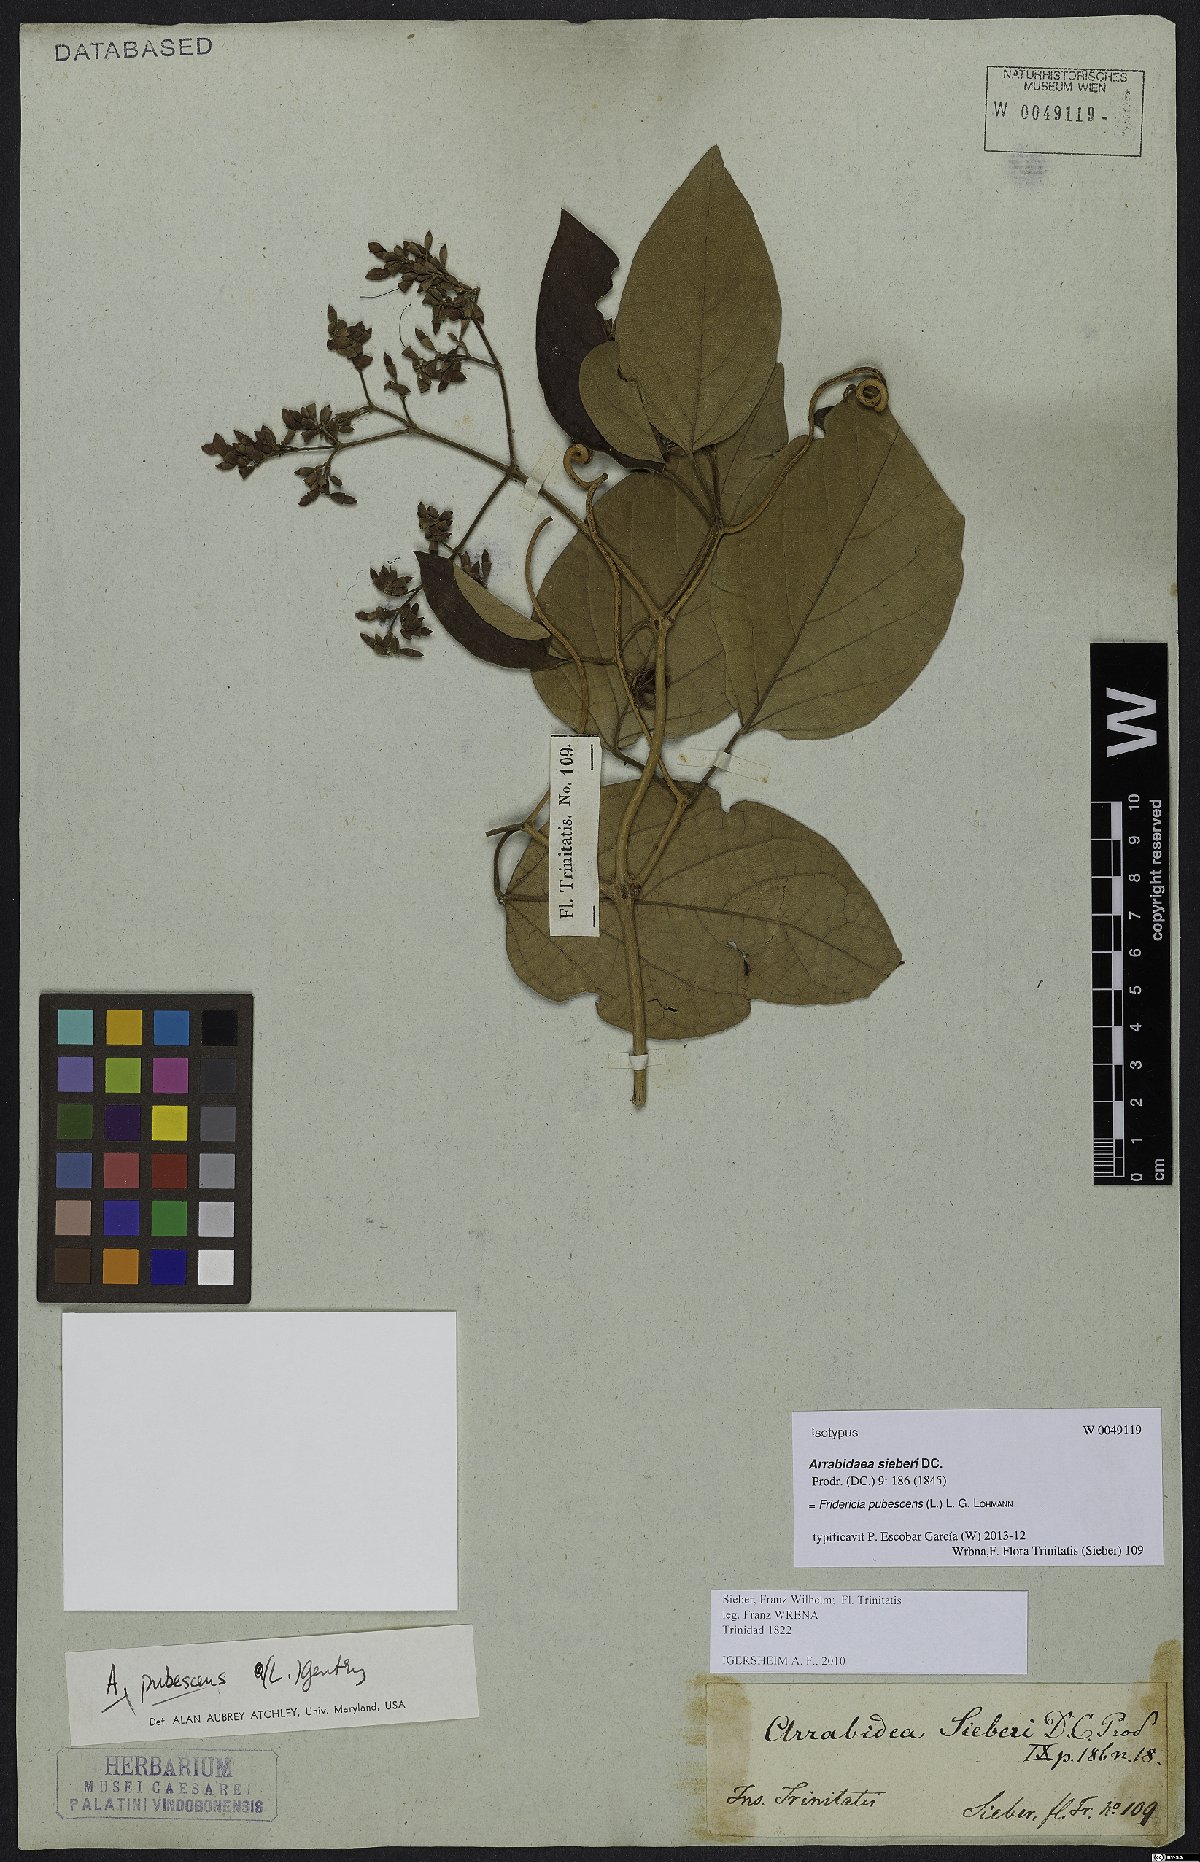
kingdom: Plantae
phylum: Tracheophyta
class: Magnoliopsida
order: Lamiales
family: Bignoniaceae
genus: Fridericia
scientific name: Fridericia pubescens
